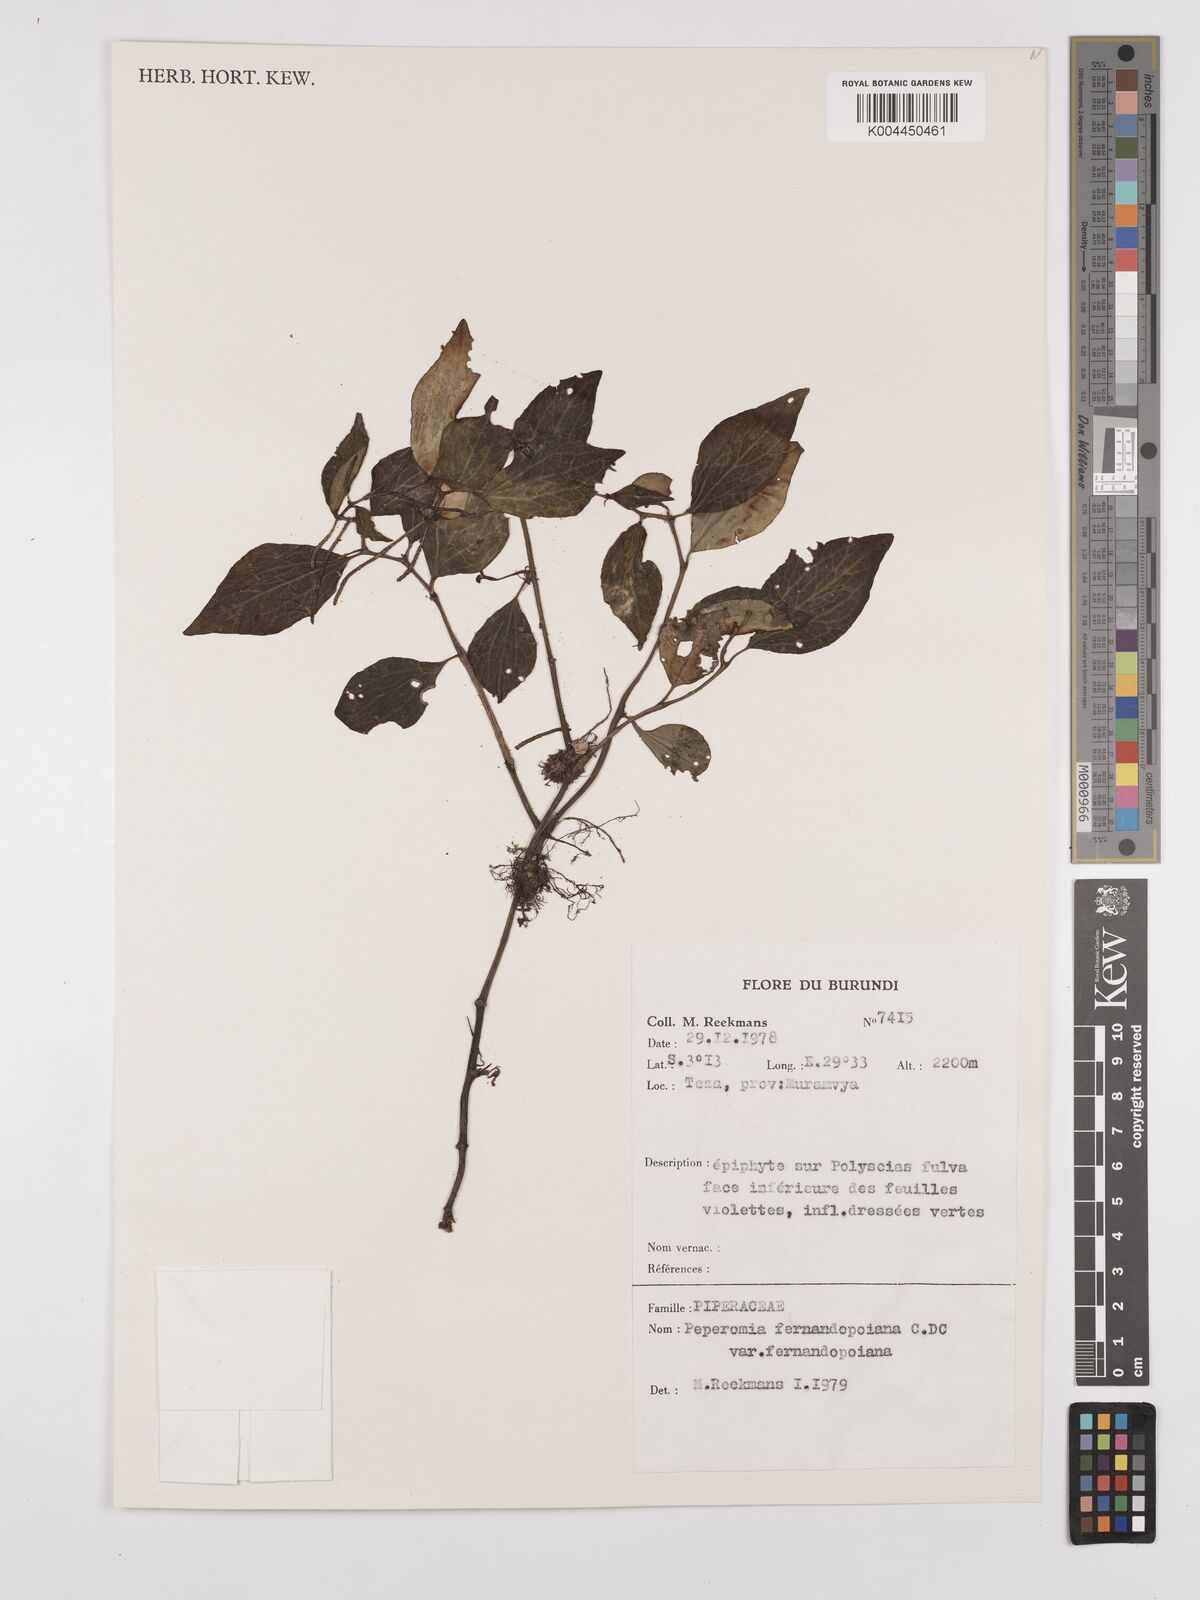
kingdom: Plantae
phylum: Tracheophyta
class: Magnoliopsida
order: Piperales
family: Piperaceae
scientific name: Piperaceae
